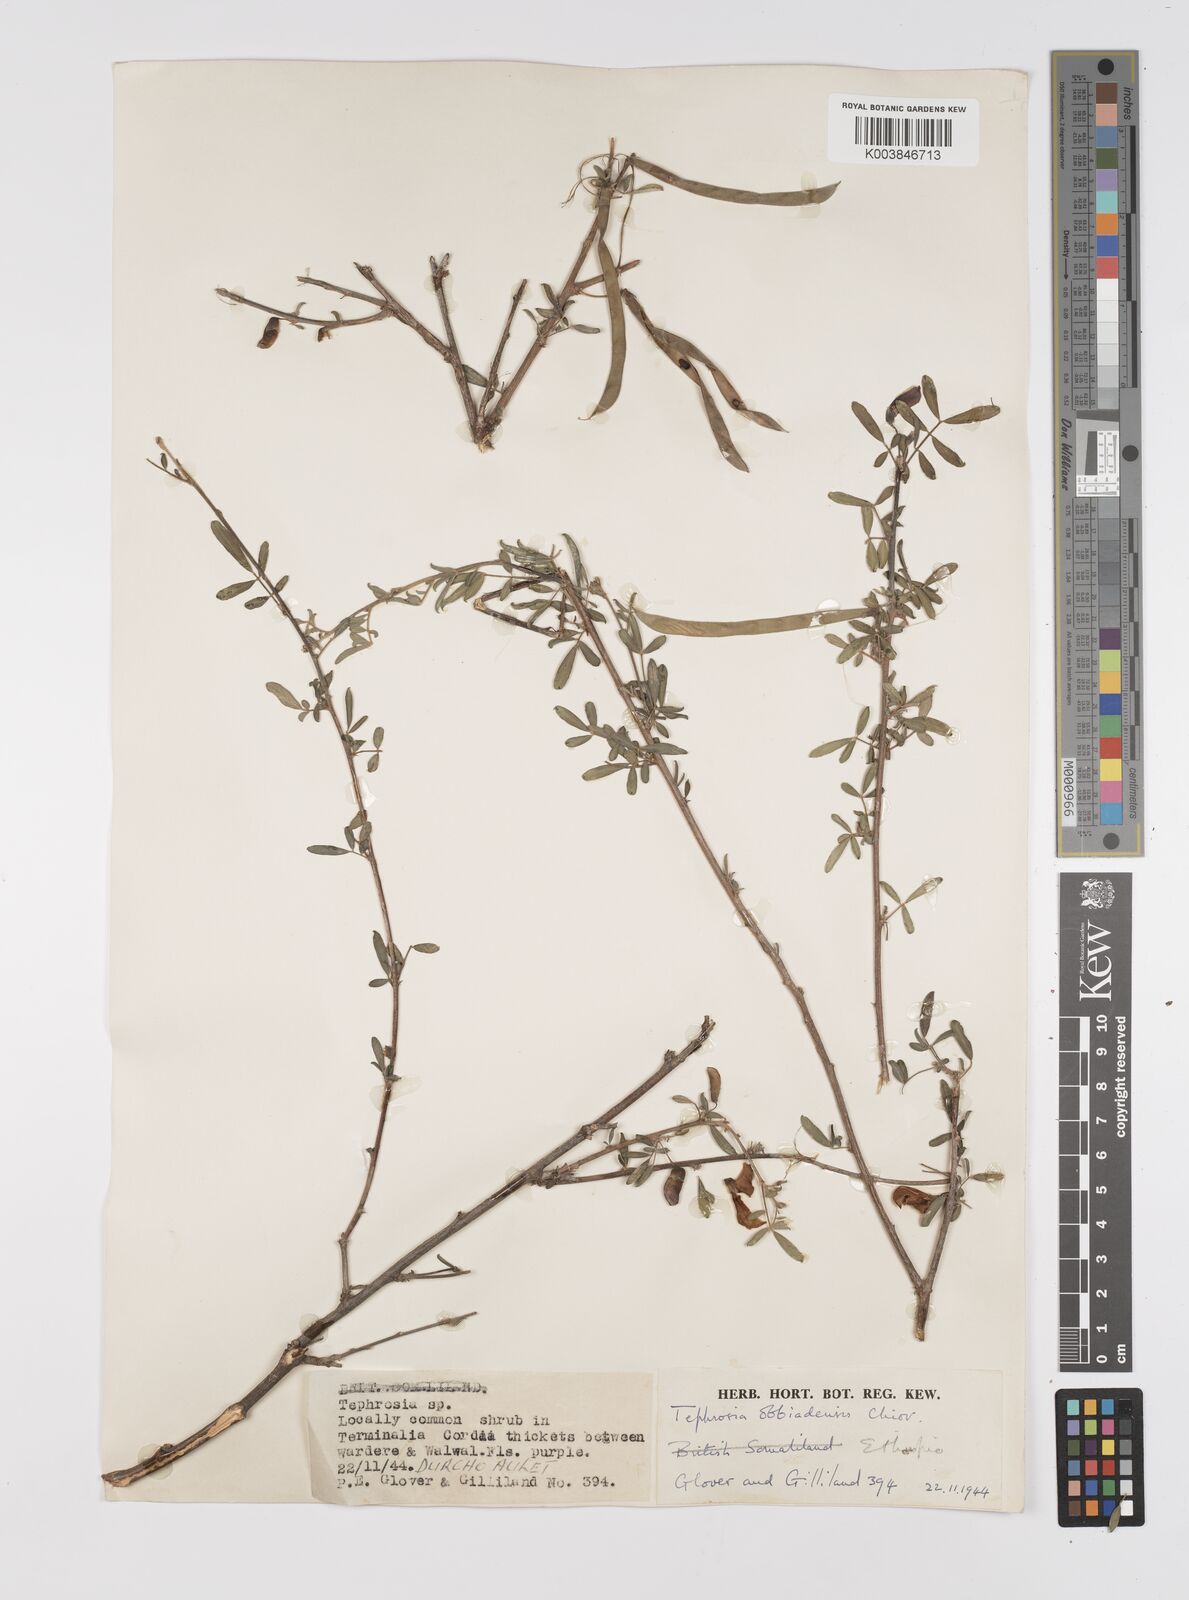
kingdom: Plantae
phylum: Tracheophyta
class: Magnoliopsida
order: Fabales
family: Fabaceae
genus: Tephrosia
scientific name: Tephrosia obbiadensis
